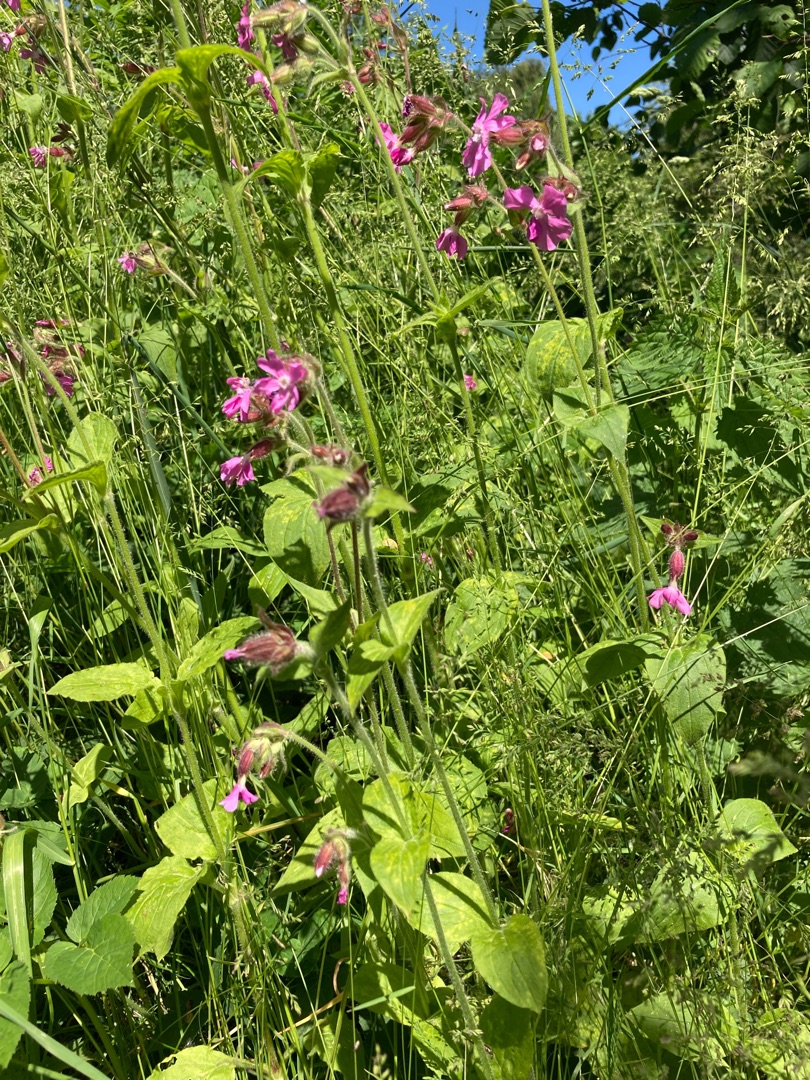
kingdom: Plantae
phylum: Tracheophyta
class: Magnoliopsida
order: Caryophyllales
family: Caryophyllaceae
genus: Silene
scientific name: Silene dioica
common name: Dagpragtstjerne
